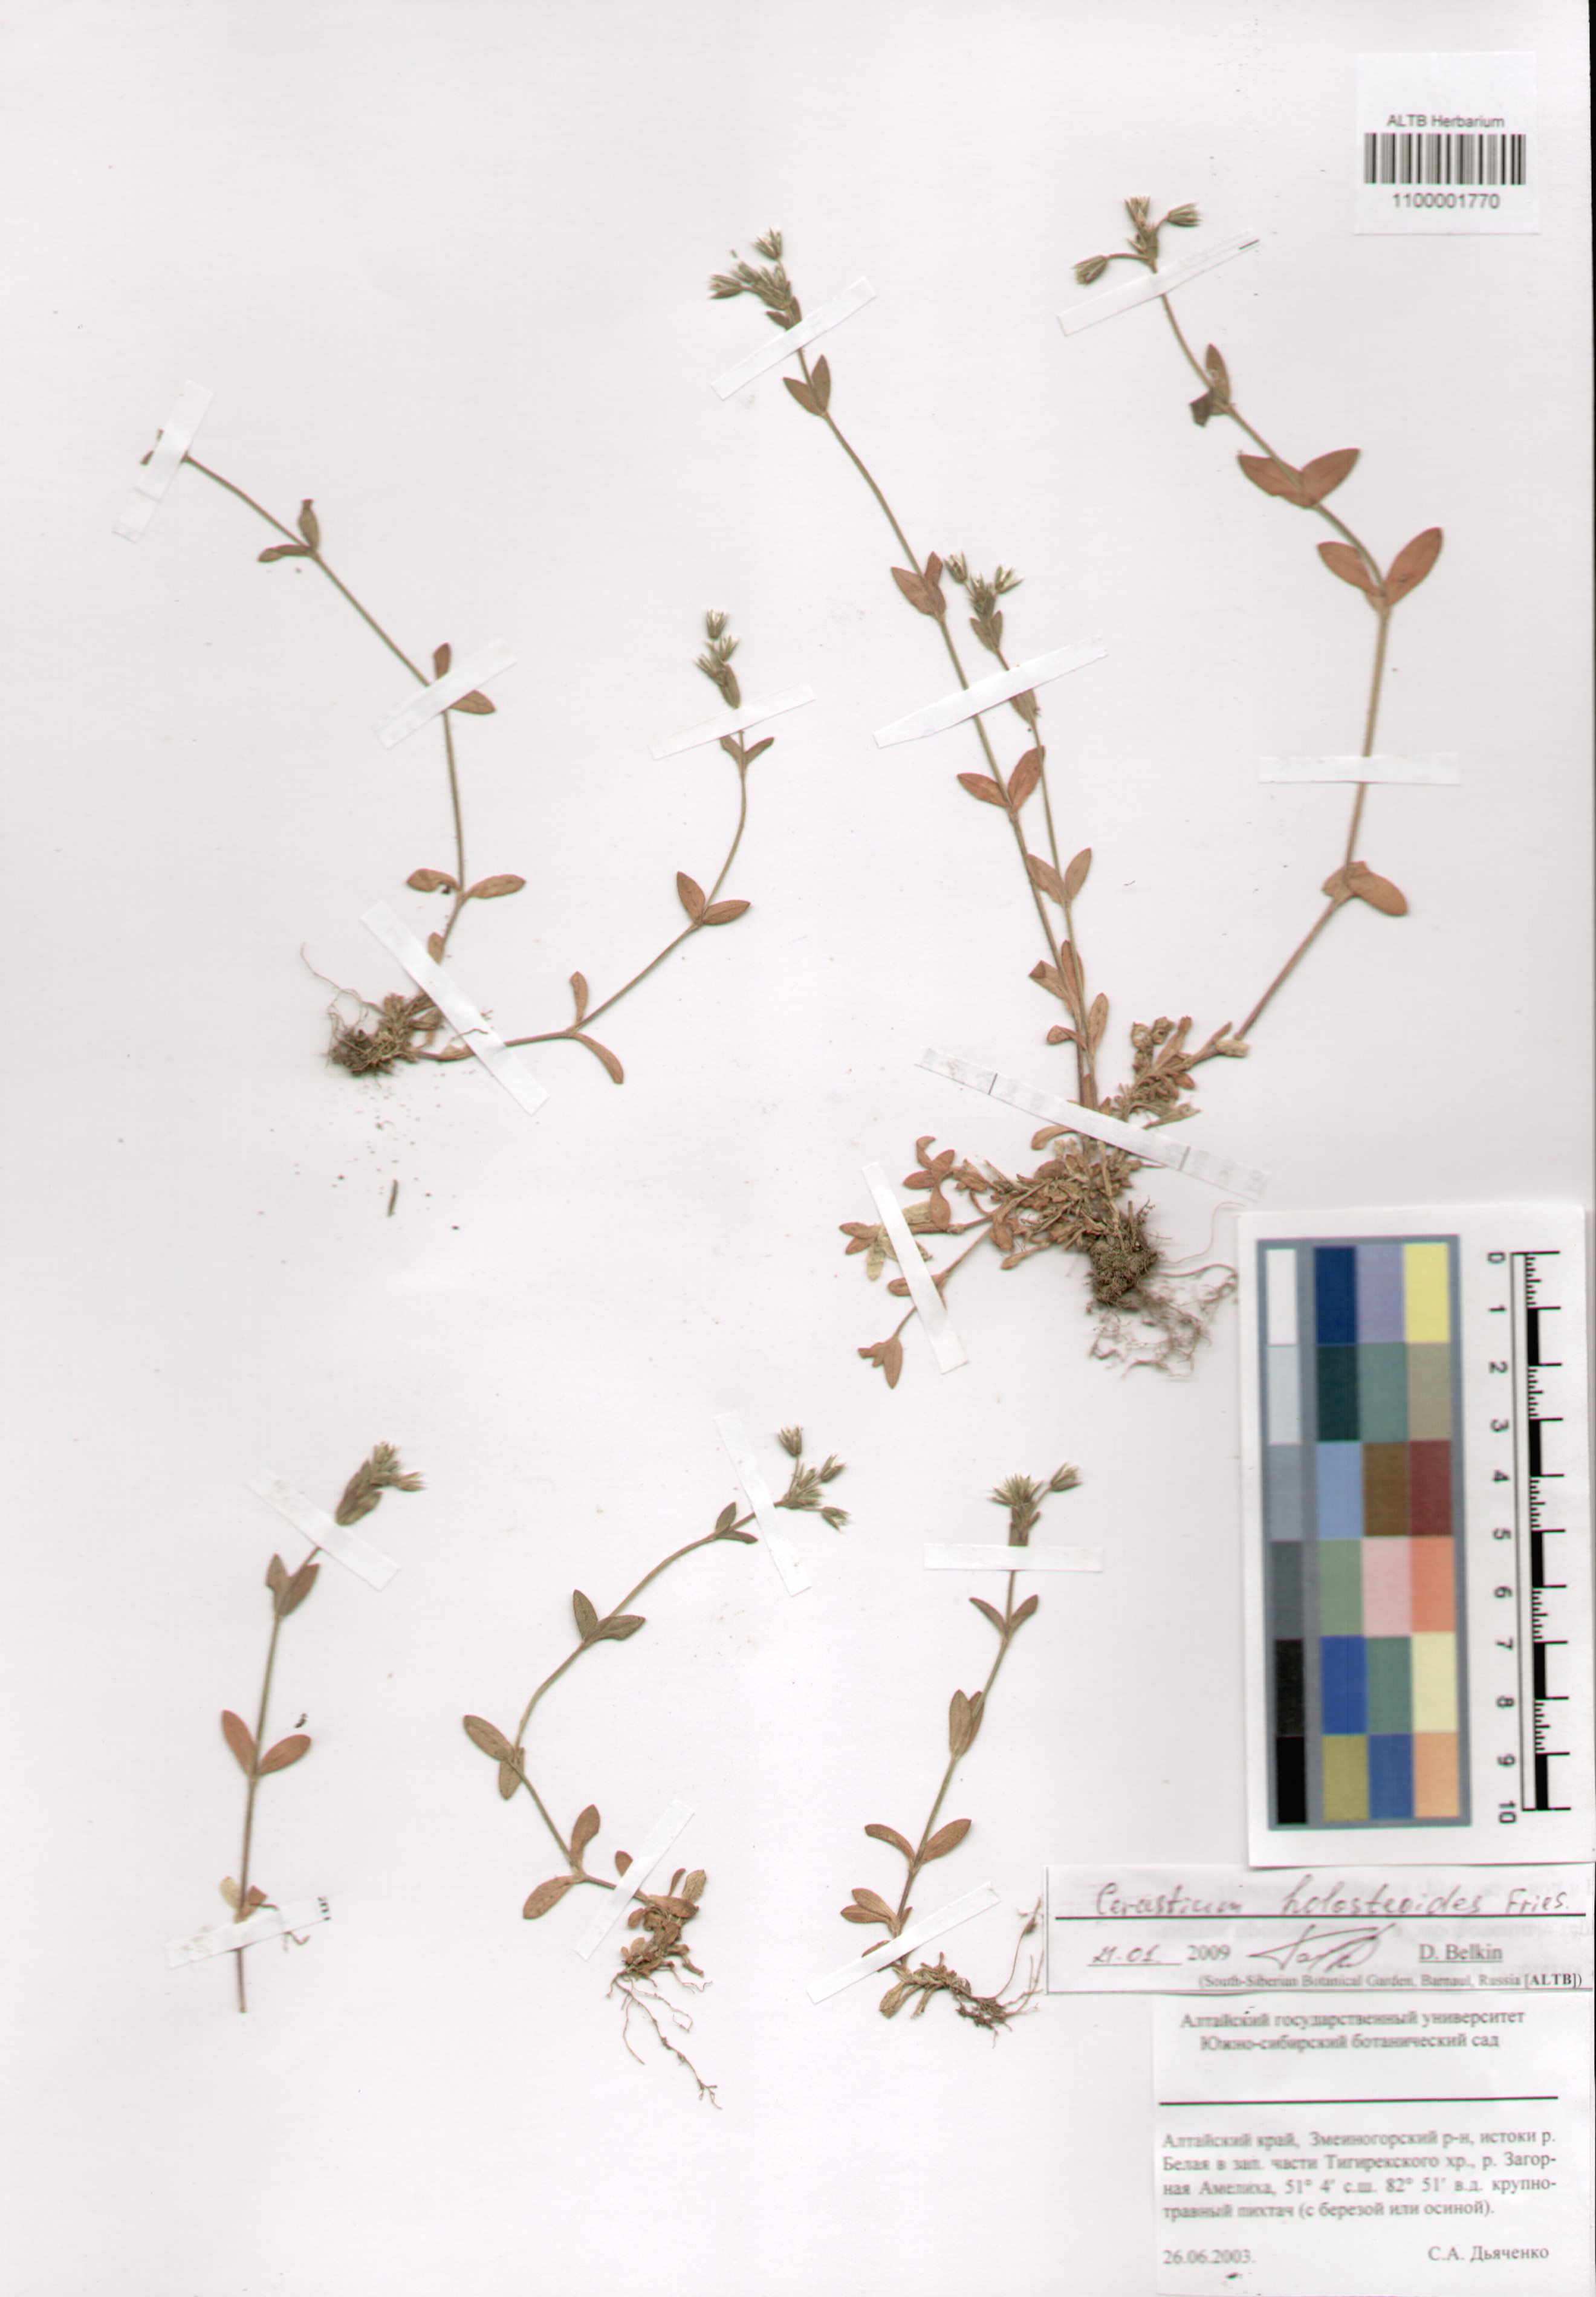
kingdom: Plantae
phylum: Tracheophyta
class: Magnoliopsida
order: Caryophyllales
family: Caryophyllaceae
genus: Cerastium
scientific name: Cerastium holosteoides
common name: Big chickweed
